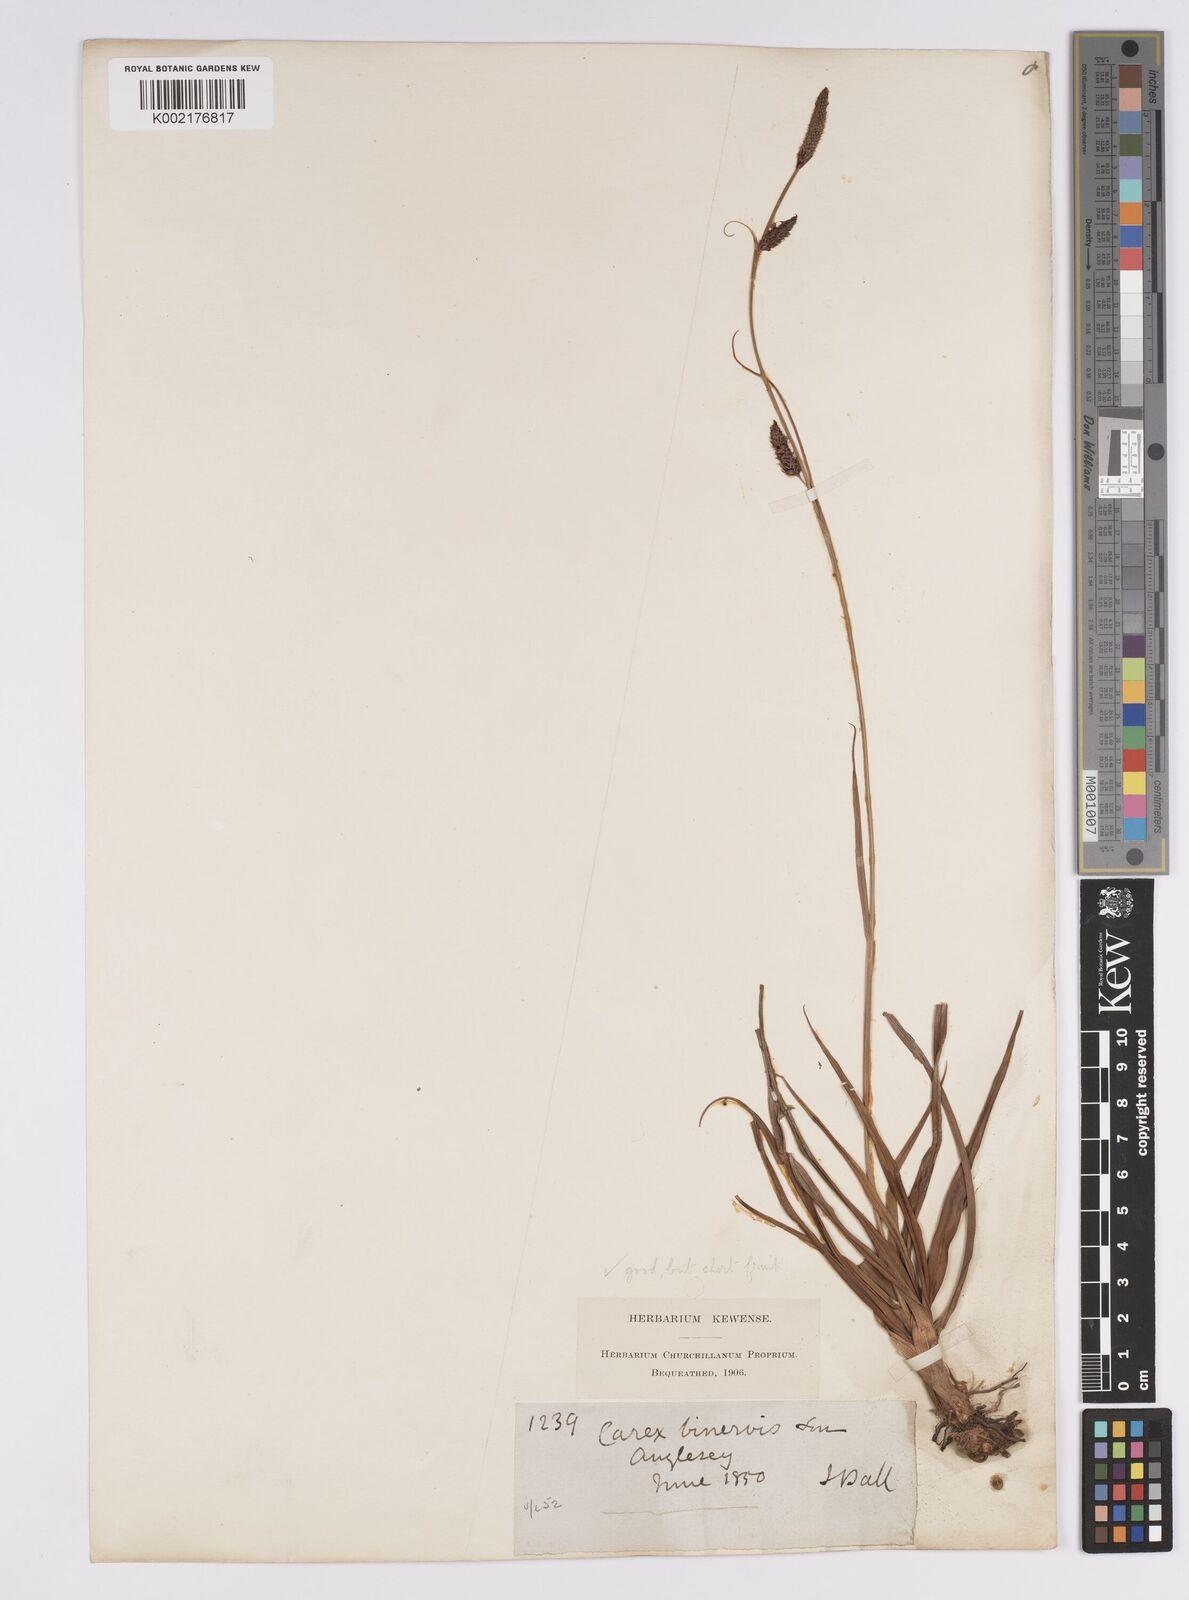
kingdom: Plantae
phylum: Tracheophyta
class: Liliopsida
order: Poales
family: Cyperaceae
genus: Carex
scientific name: Carex binervis
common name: Green-ribbed sedge
